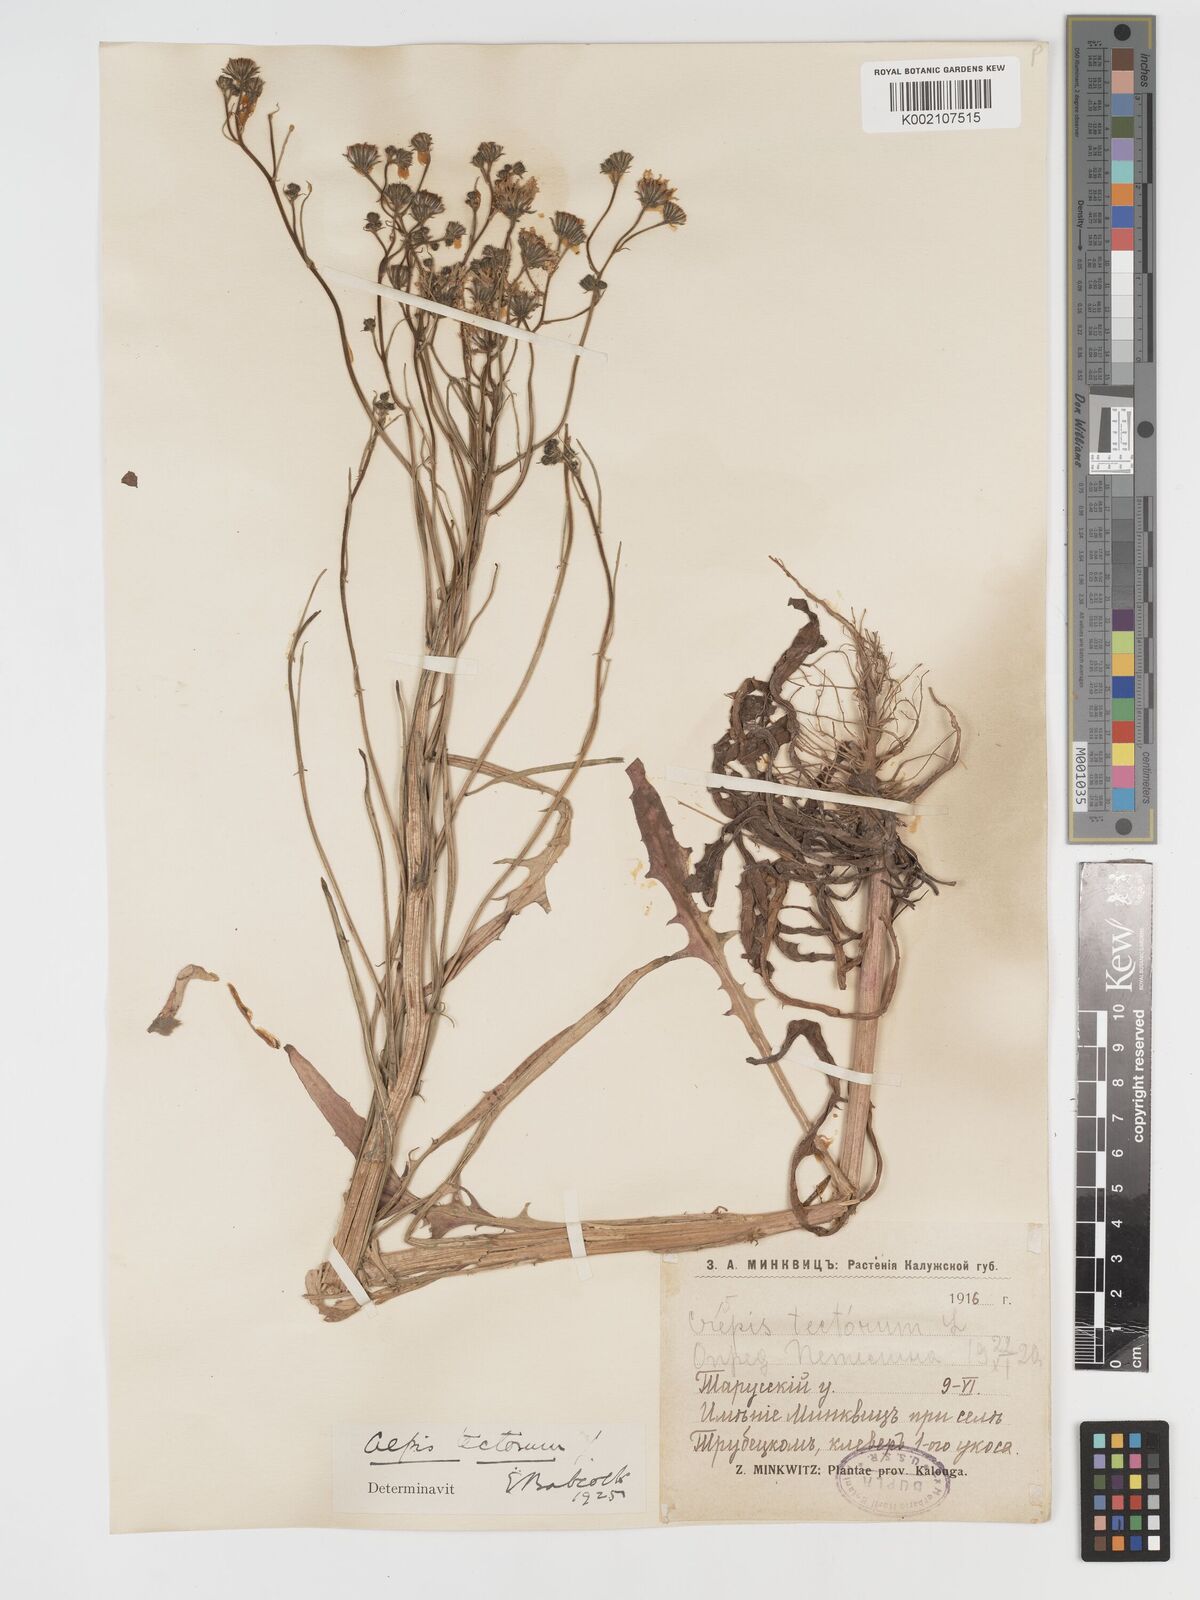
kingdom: Plantae
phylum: Tracheophyta
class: Magnoliopsida
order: Asterales
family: Asteraceae
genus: Crepis
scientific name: Crepis tectorum
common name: Narrow-leaved hawk's-beard
